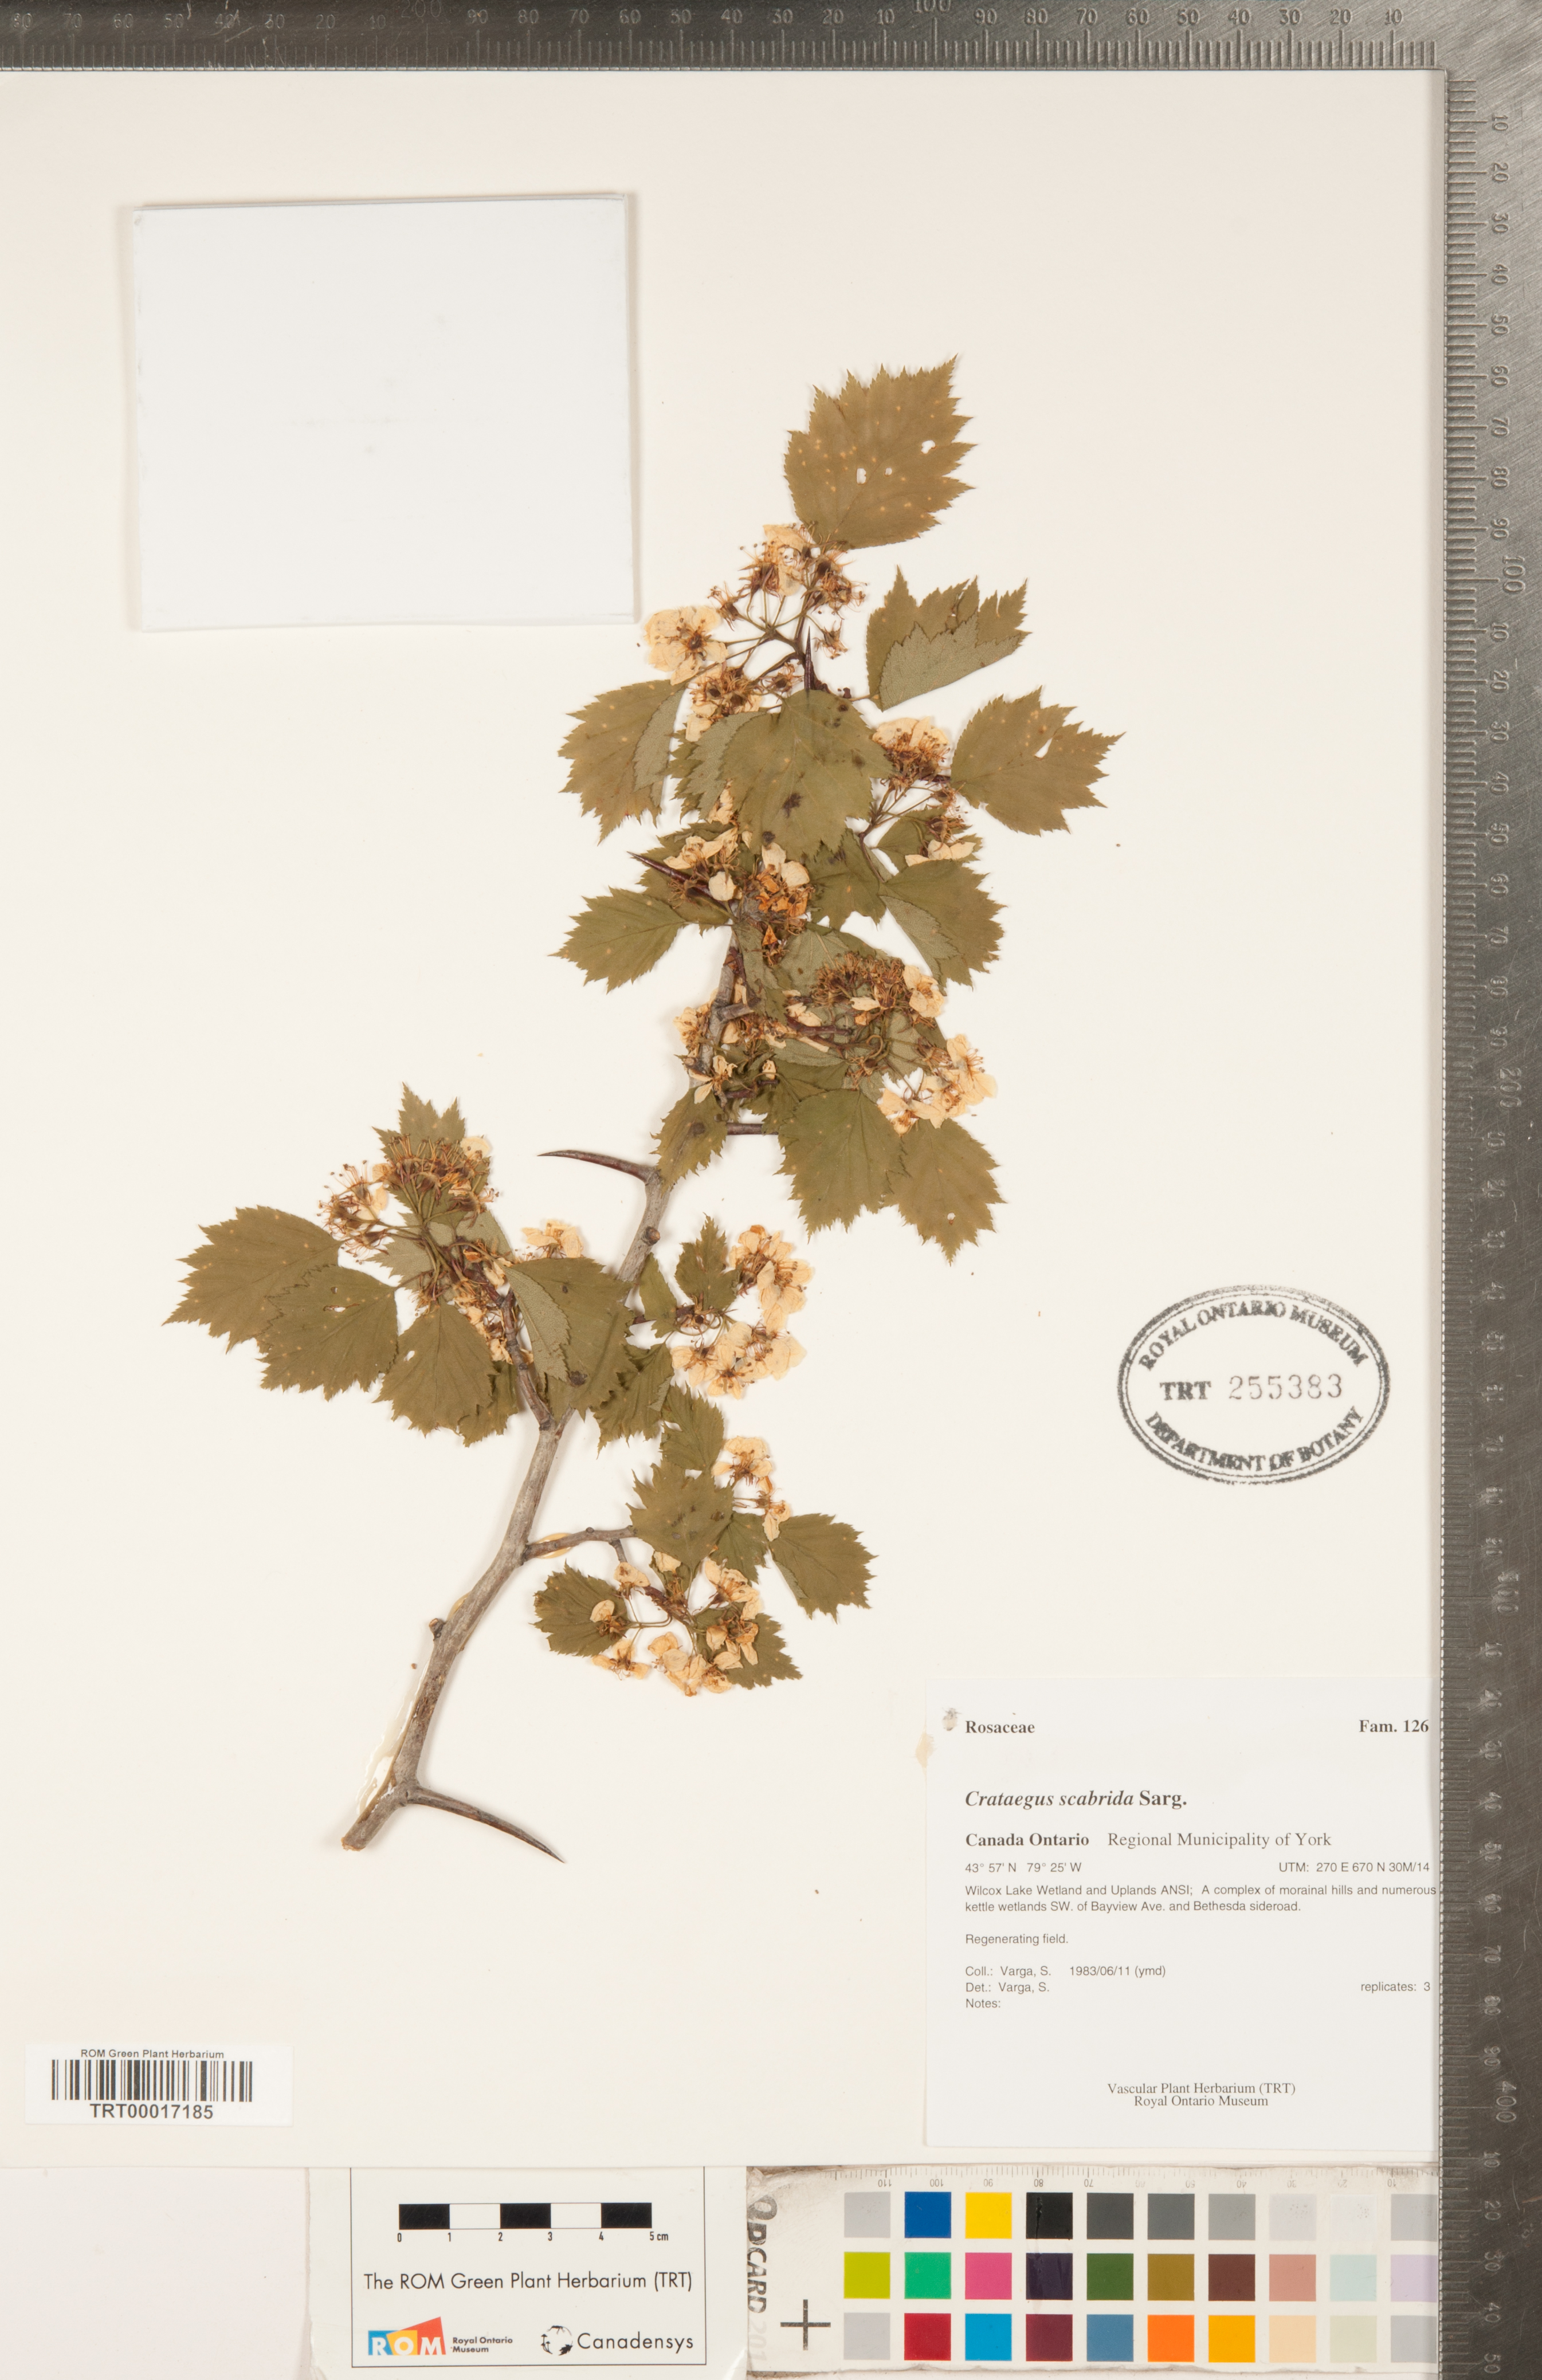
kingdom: Plantae
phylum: Tracheophyta
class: Magnoliopsida
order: Rosales
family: Rosaceae
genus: Crataegus
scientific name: Crataegus scabrida
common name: Rough hawthorn
